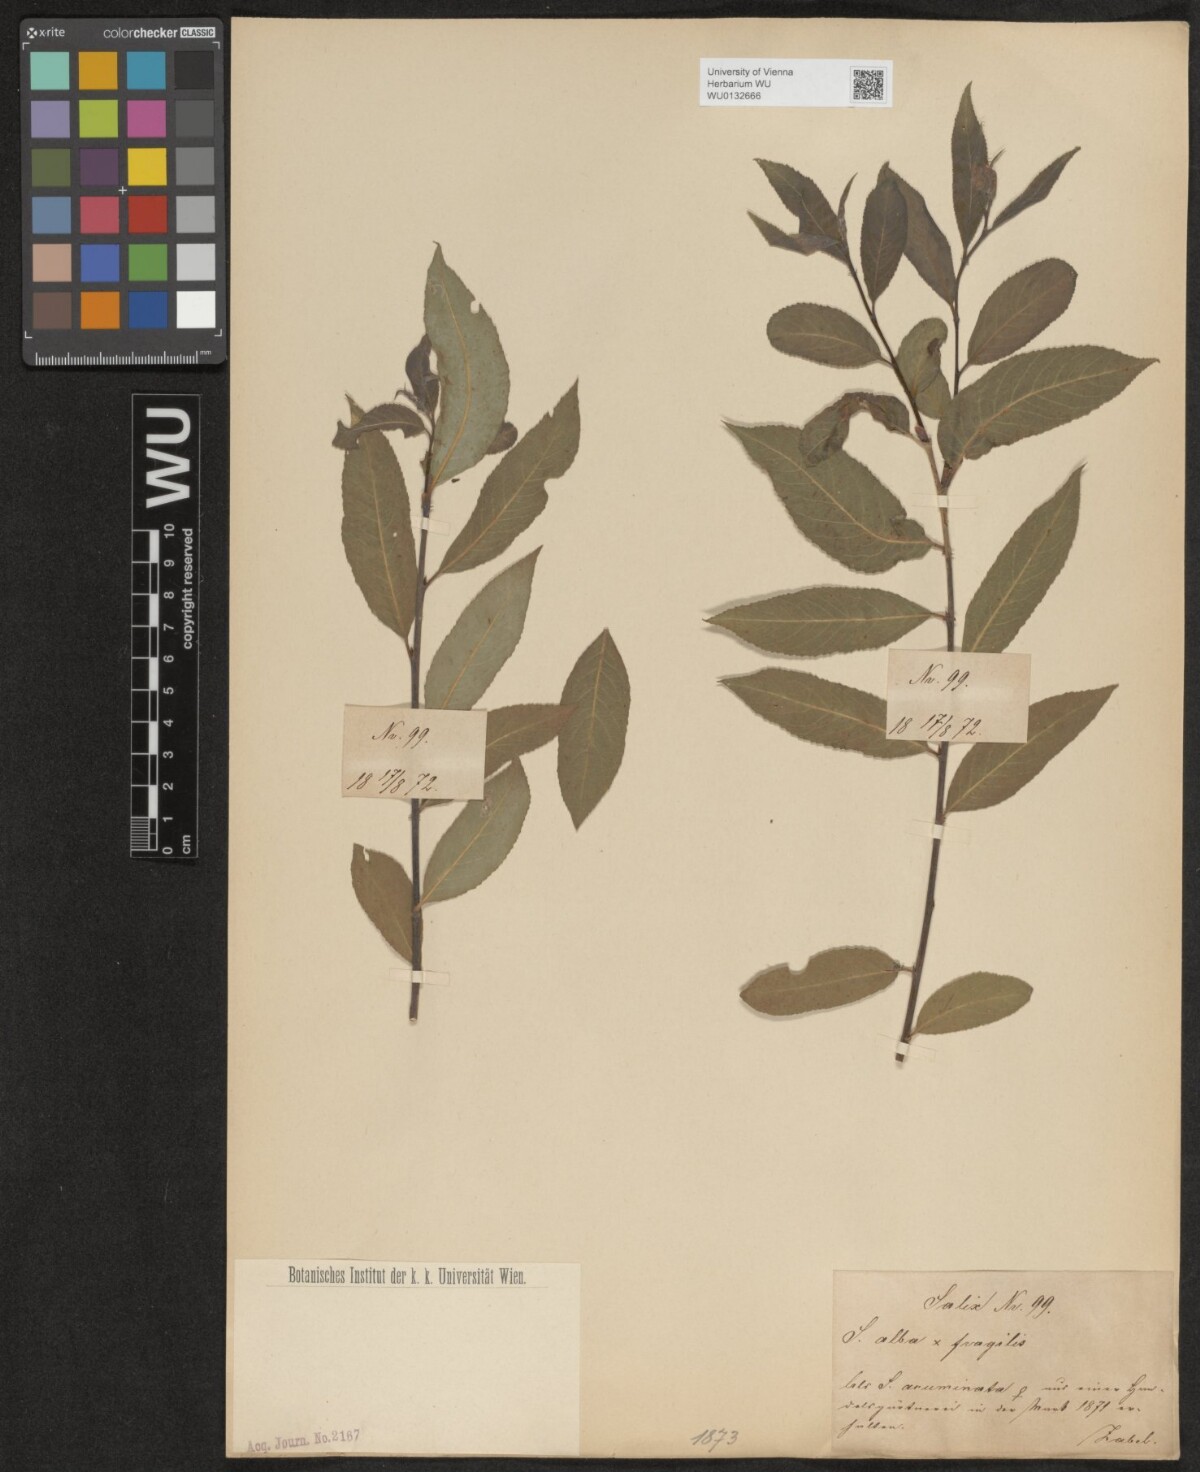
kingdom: Plantae
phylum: Tracheophyta
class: Magnoliopsida
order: Malpighiales
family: Salicaceae
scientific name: Salicaceae
